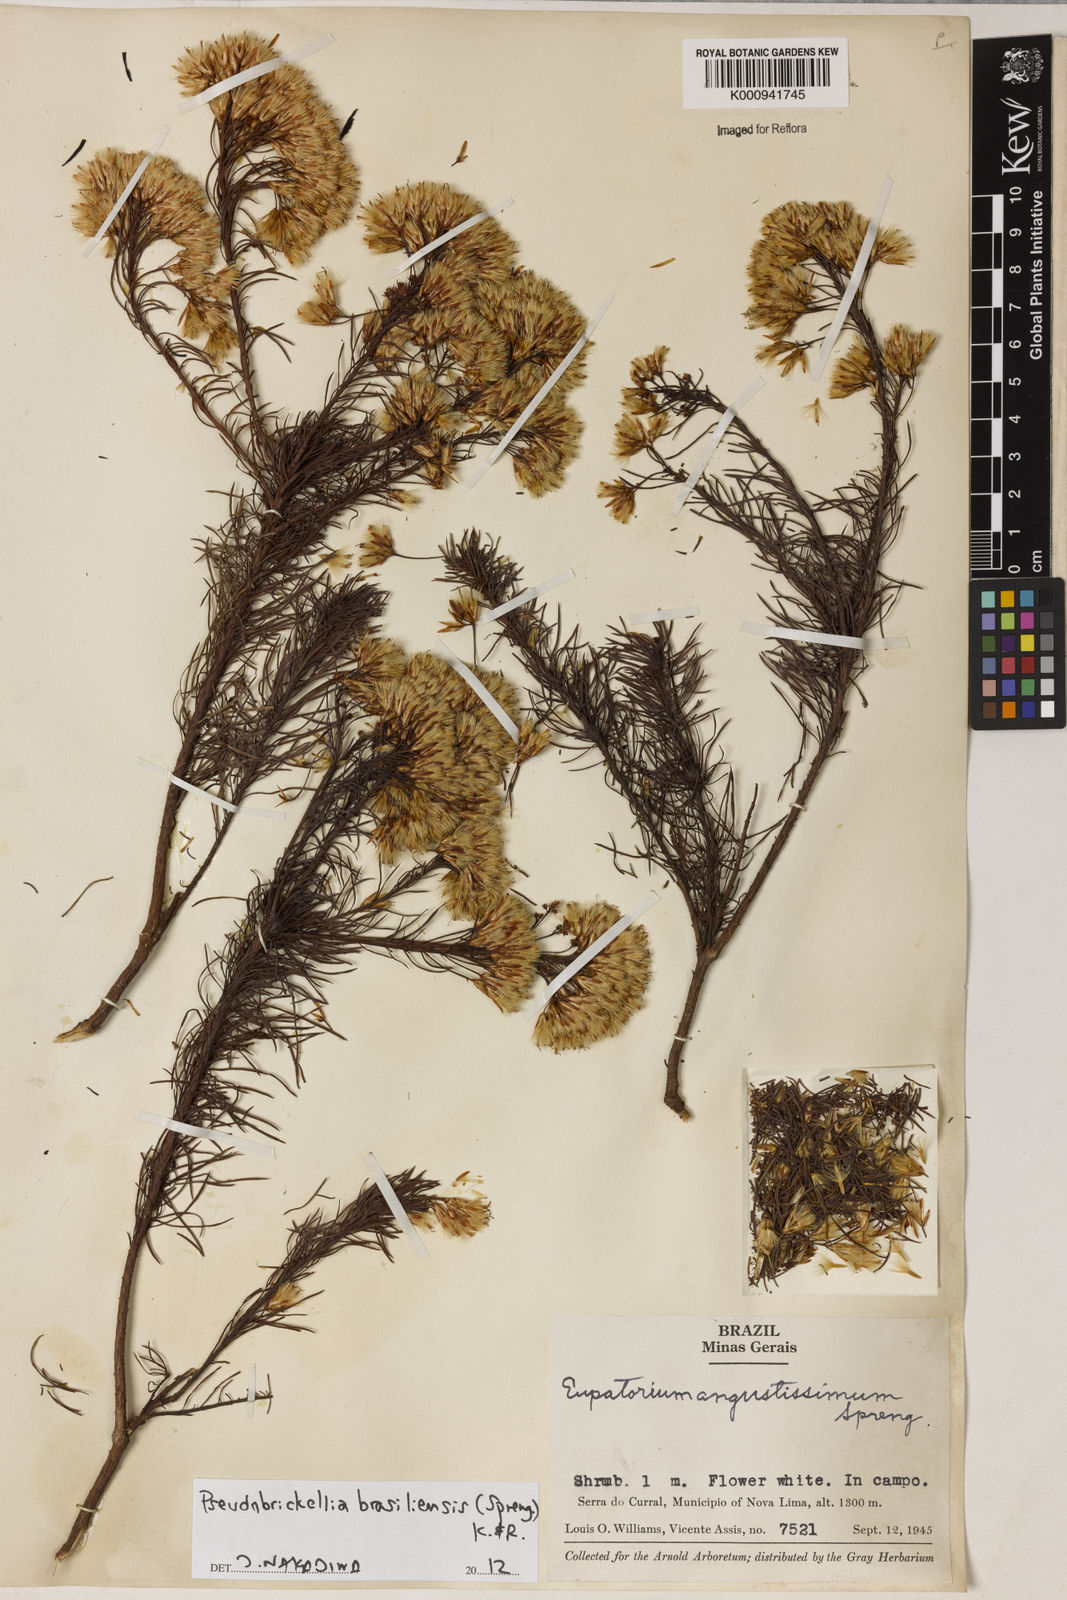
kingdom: Plantae
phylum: Tracheophyta
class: Magnoliopsida
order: Asterales
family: Asteraceae
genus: Pseudobrickellia
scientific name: Pseudobrickellia brasiliensis
